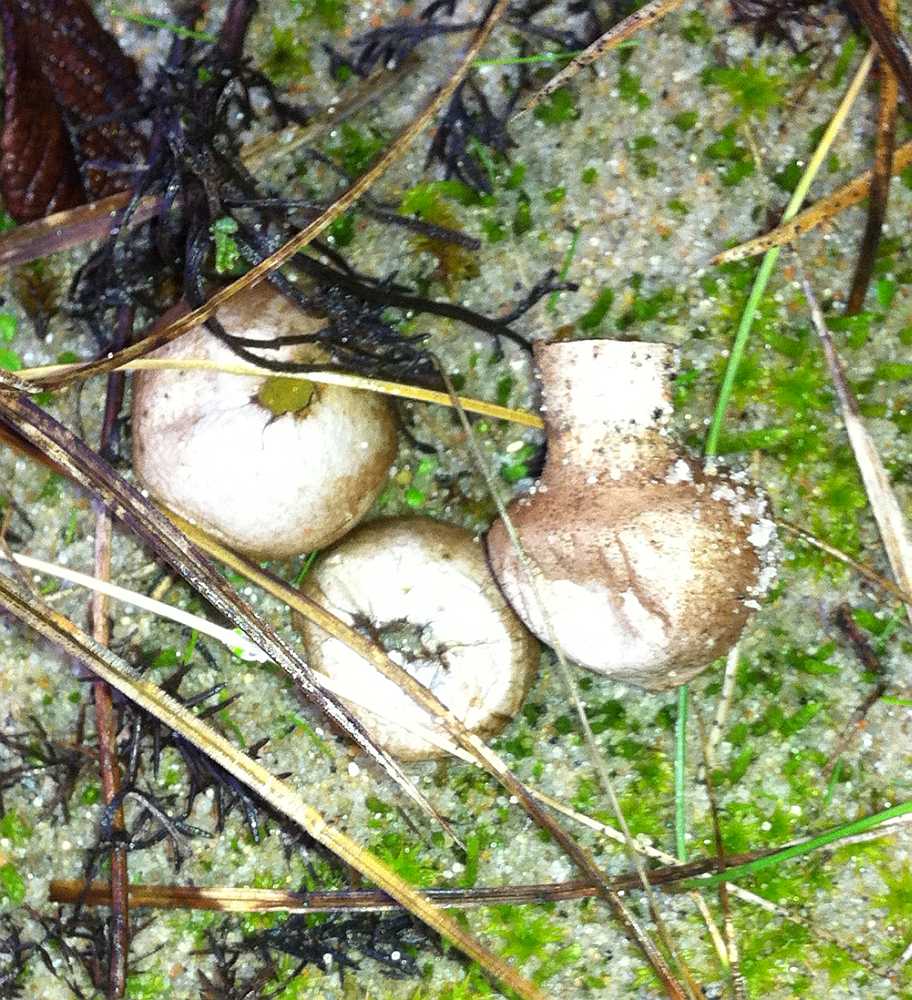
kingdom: Fungi
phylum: Basidiomycota
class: Agaricomycetes
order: Agaricales
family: Lycoperdaceae
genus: Lycoperdon
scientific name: Lycoperdon lividum
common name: mark-støvbold
